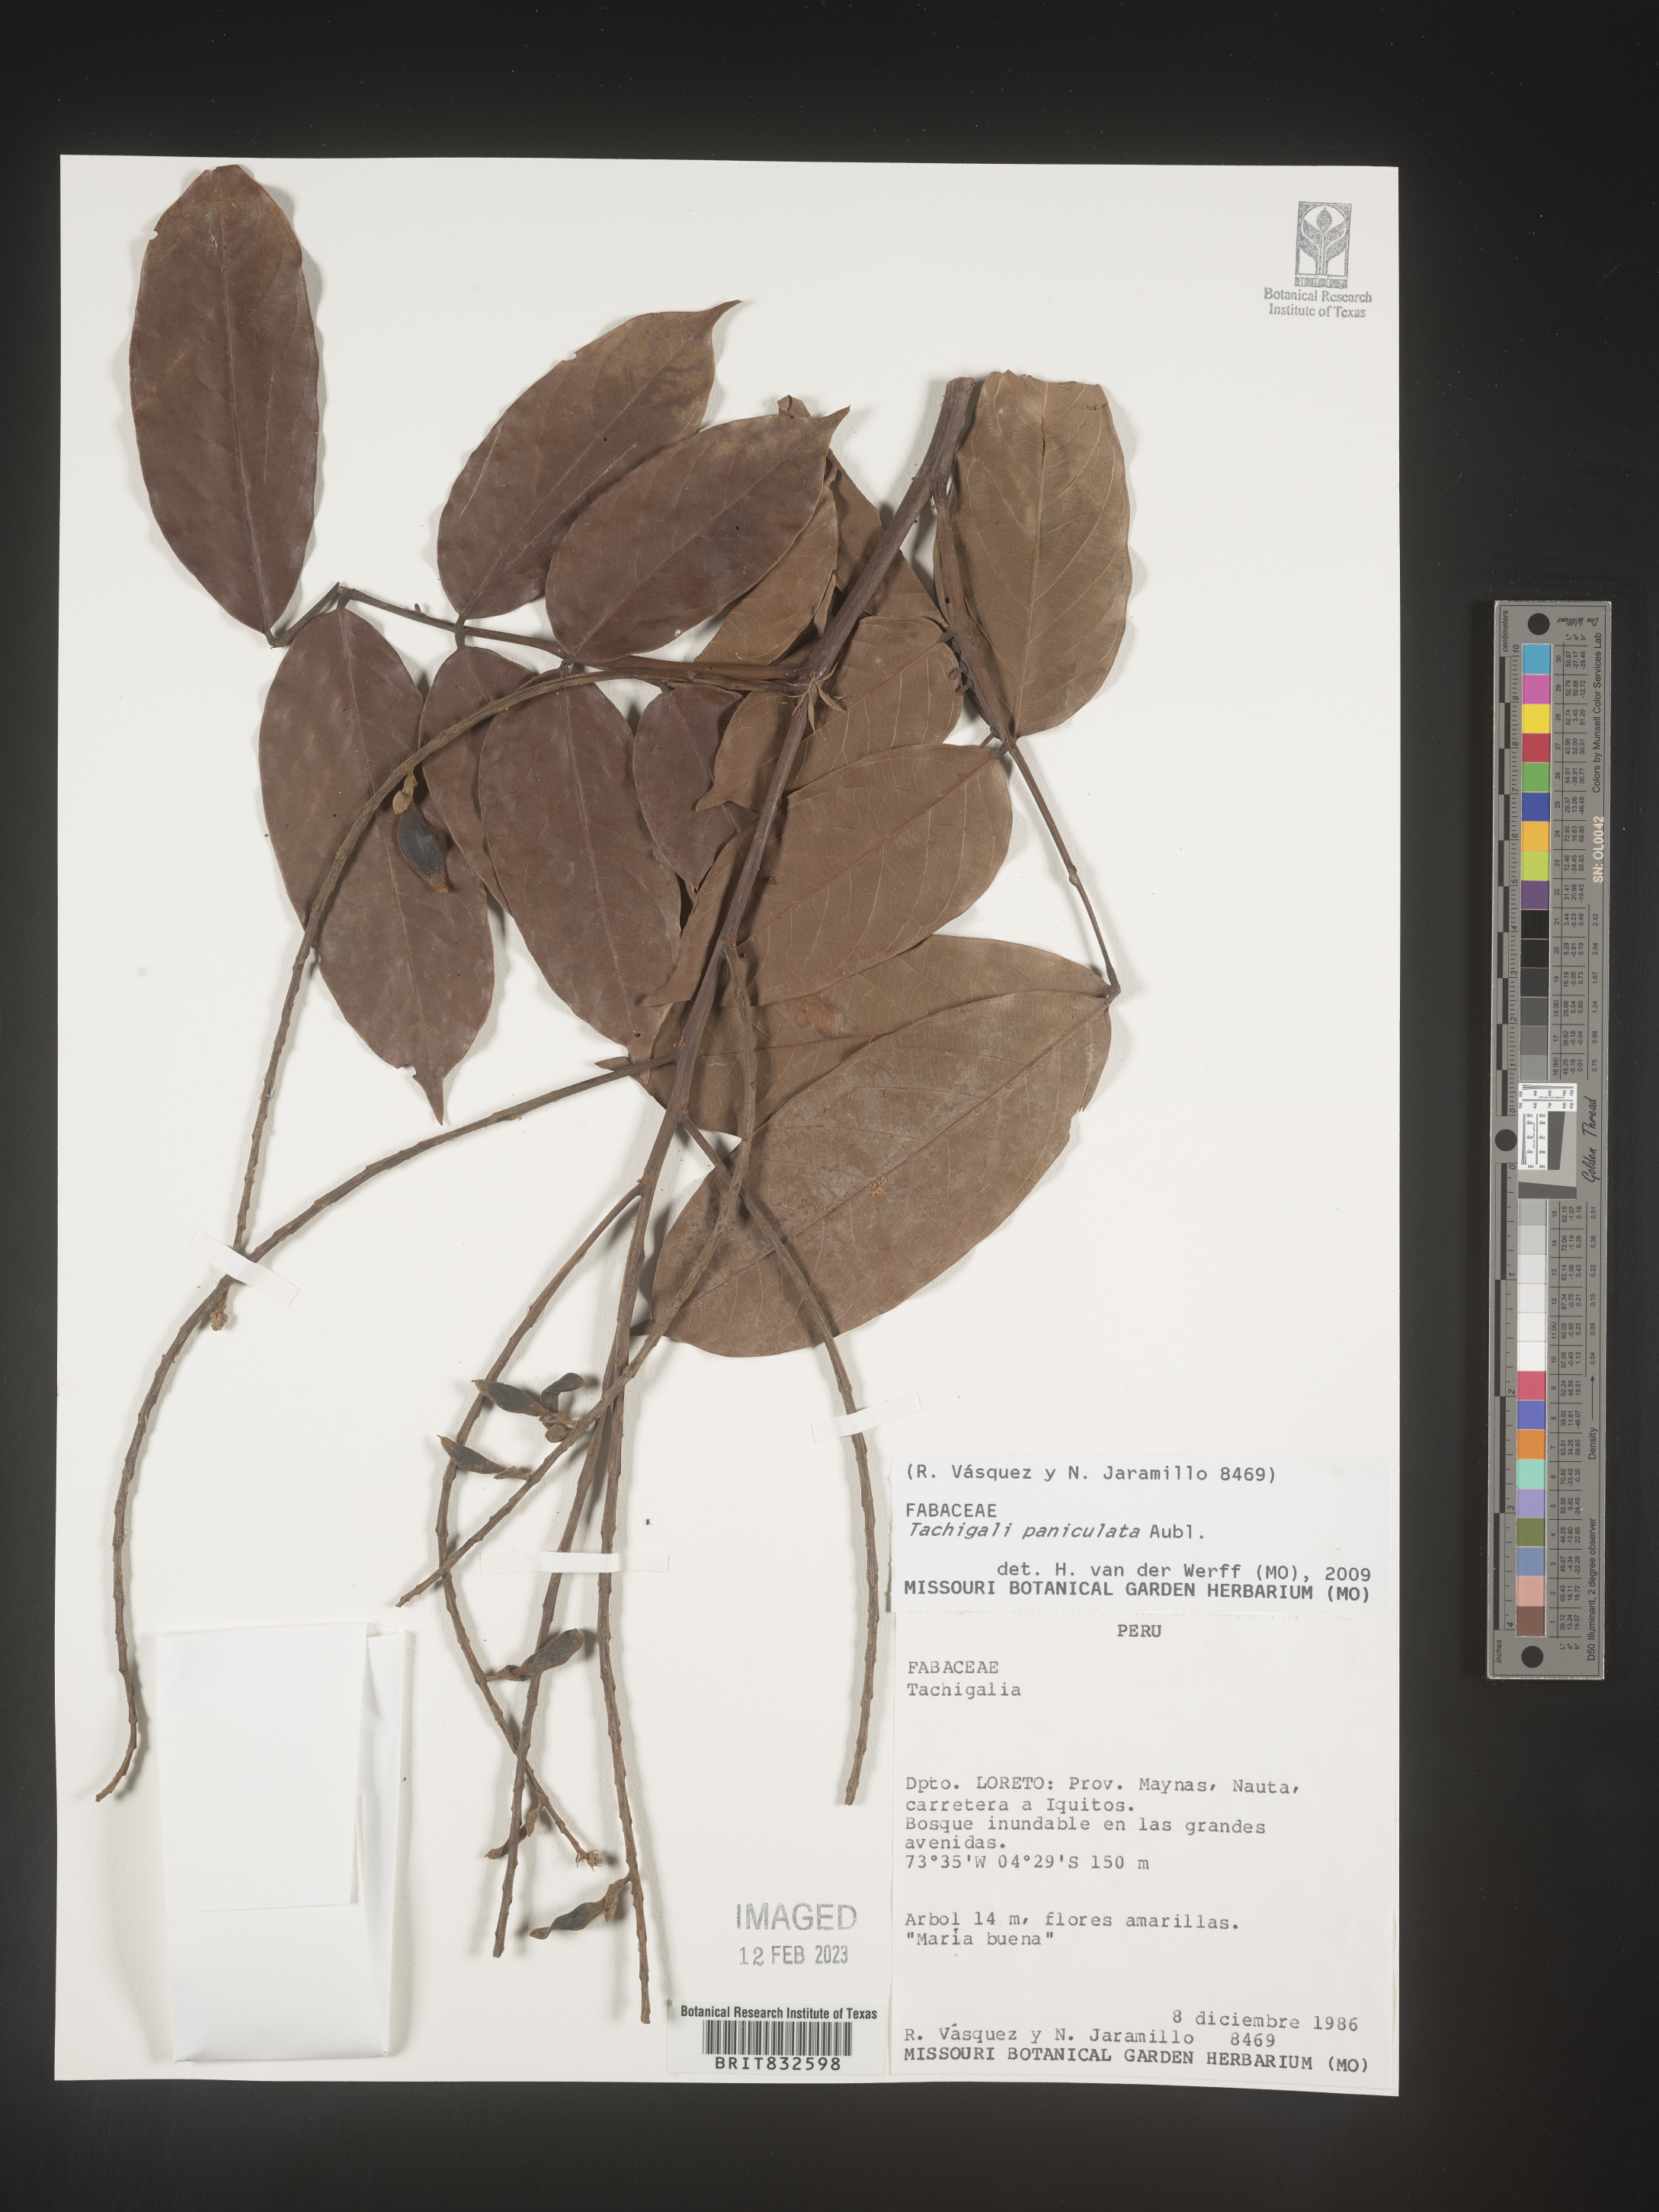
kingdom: Plantae
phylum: Tracheophyta
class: Magnoliopsida
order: Fabales
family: Fabaceae
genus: Tachigali
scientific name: Tachigali
